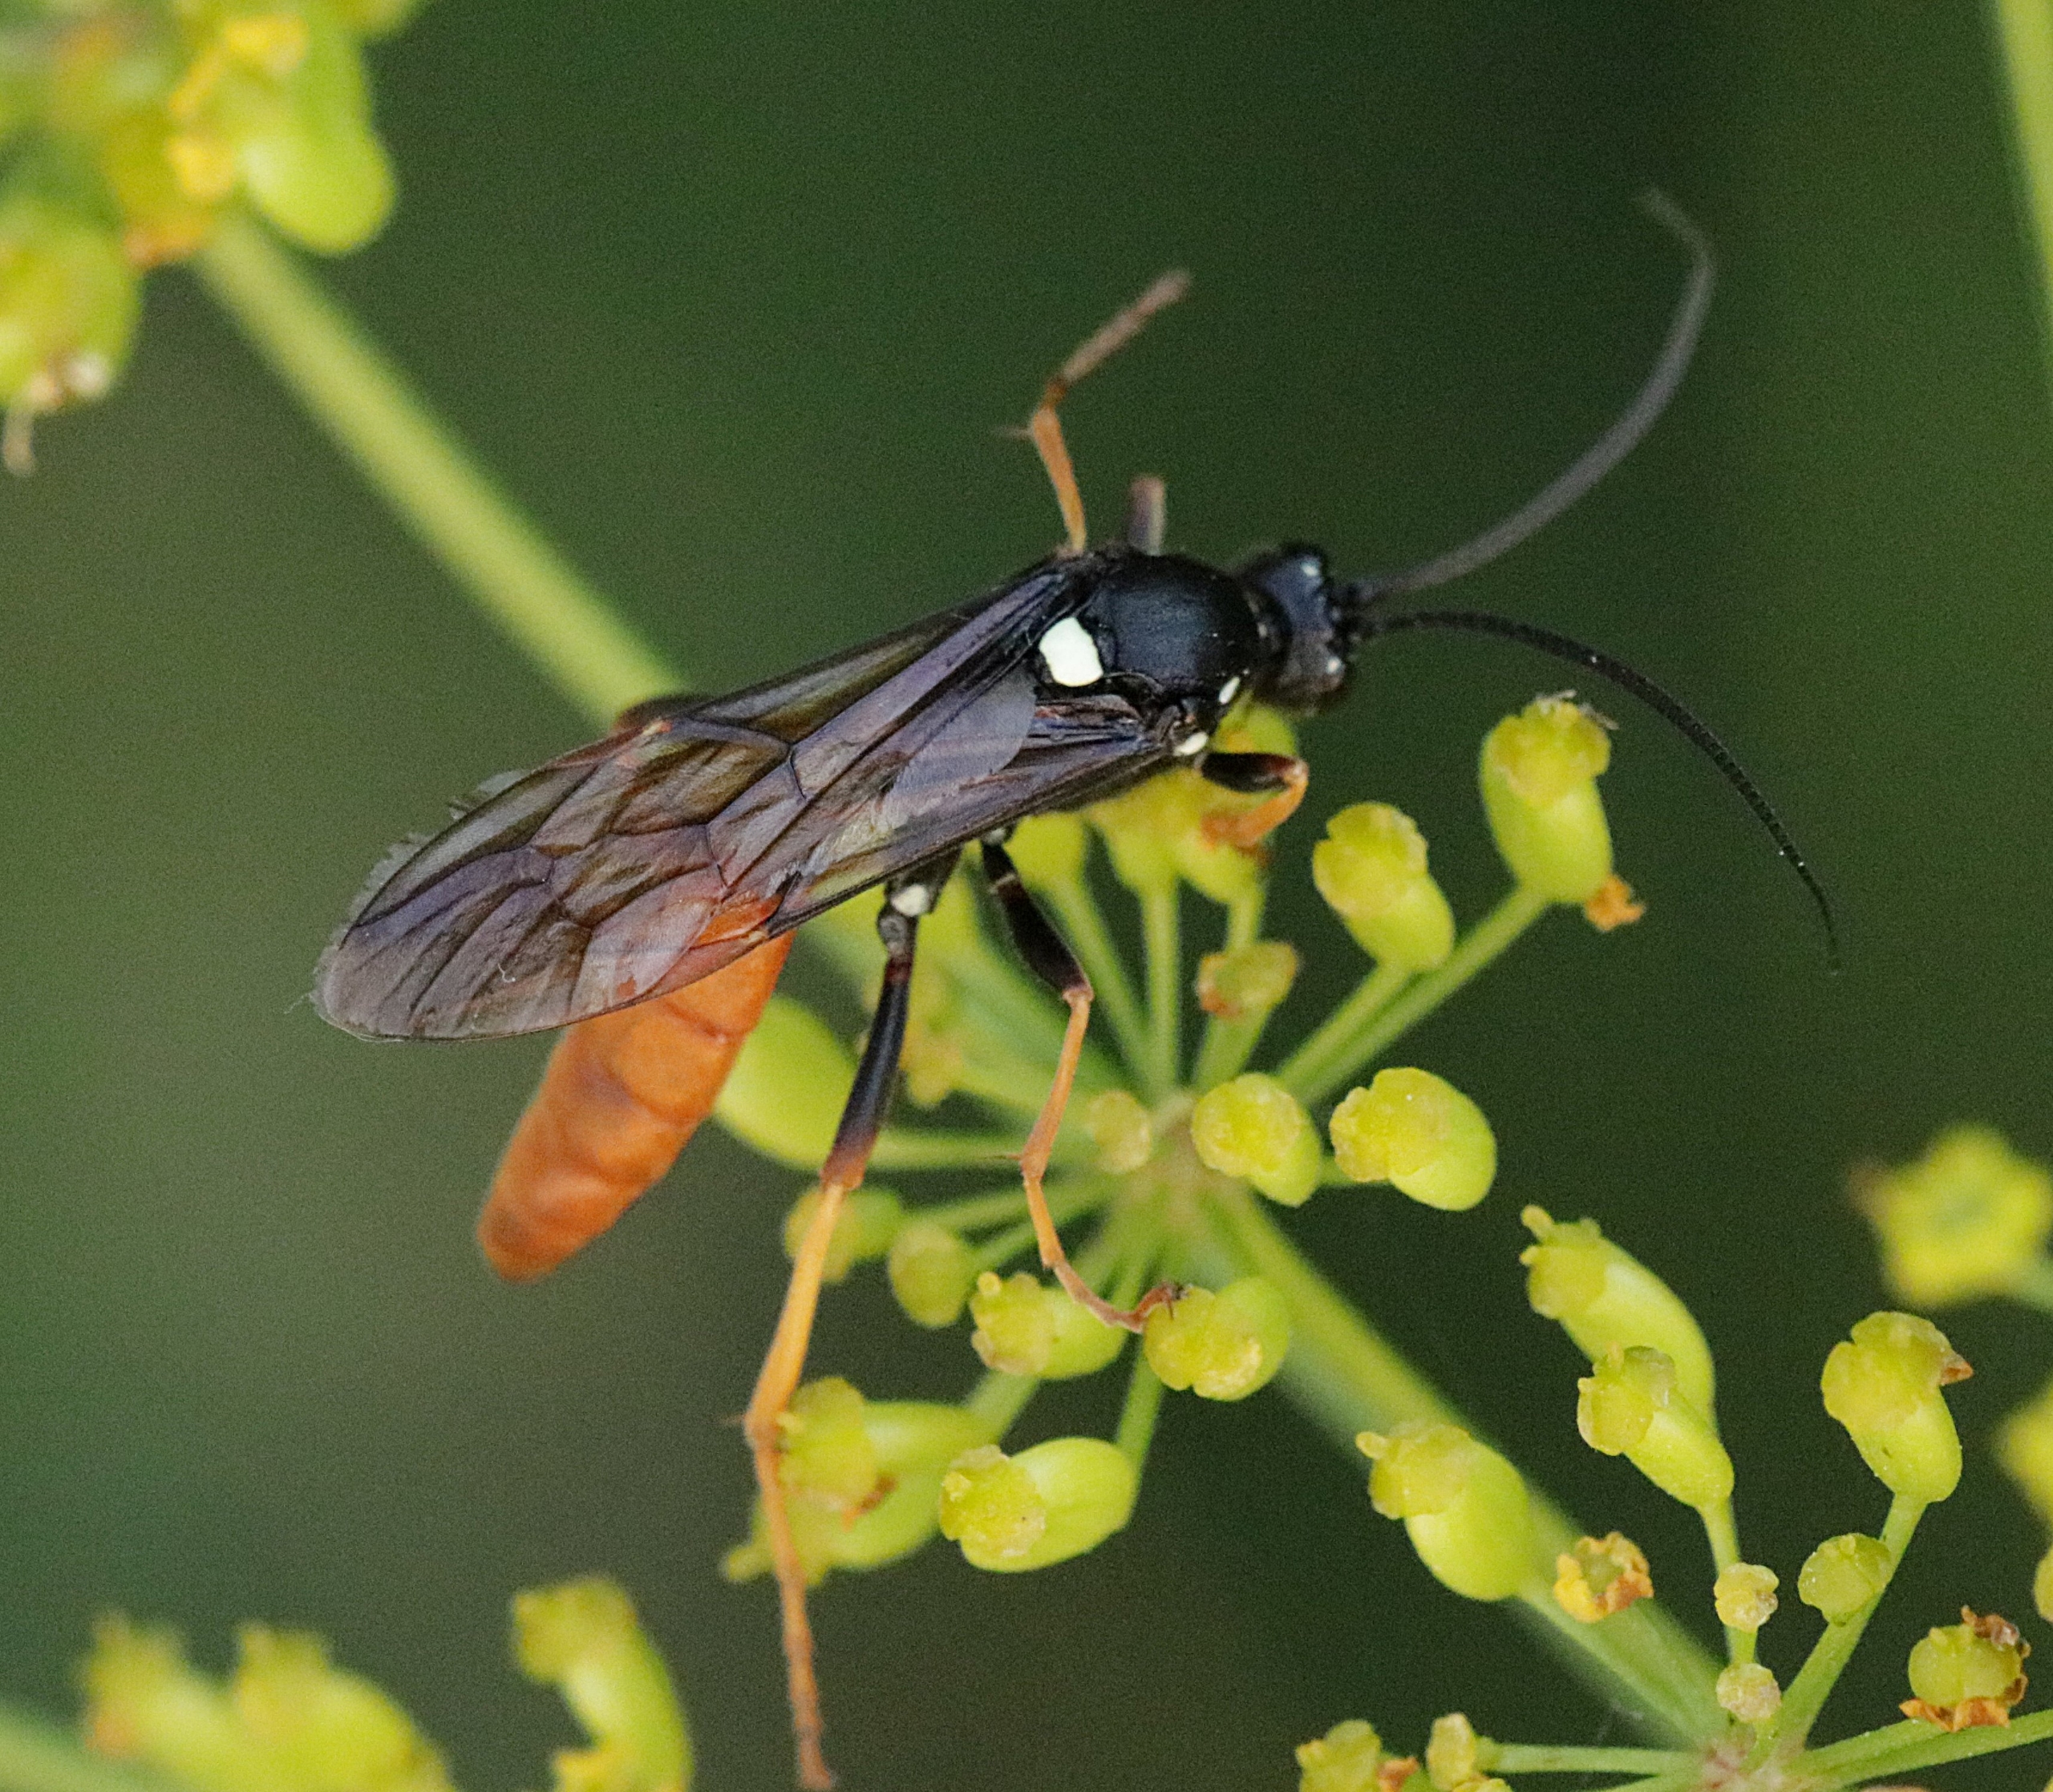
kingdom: Animalia
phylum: Arthropoda
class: Insecta
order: Hymenoptera
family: Ichneumonidae
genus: Amblyjoppa
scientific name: Amblyjoppa fuscipennis
